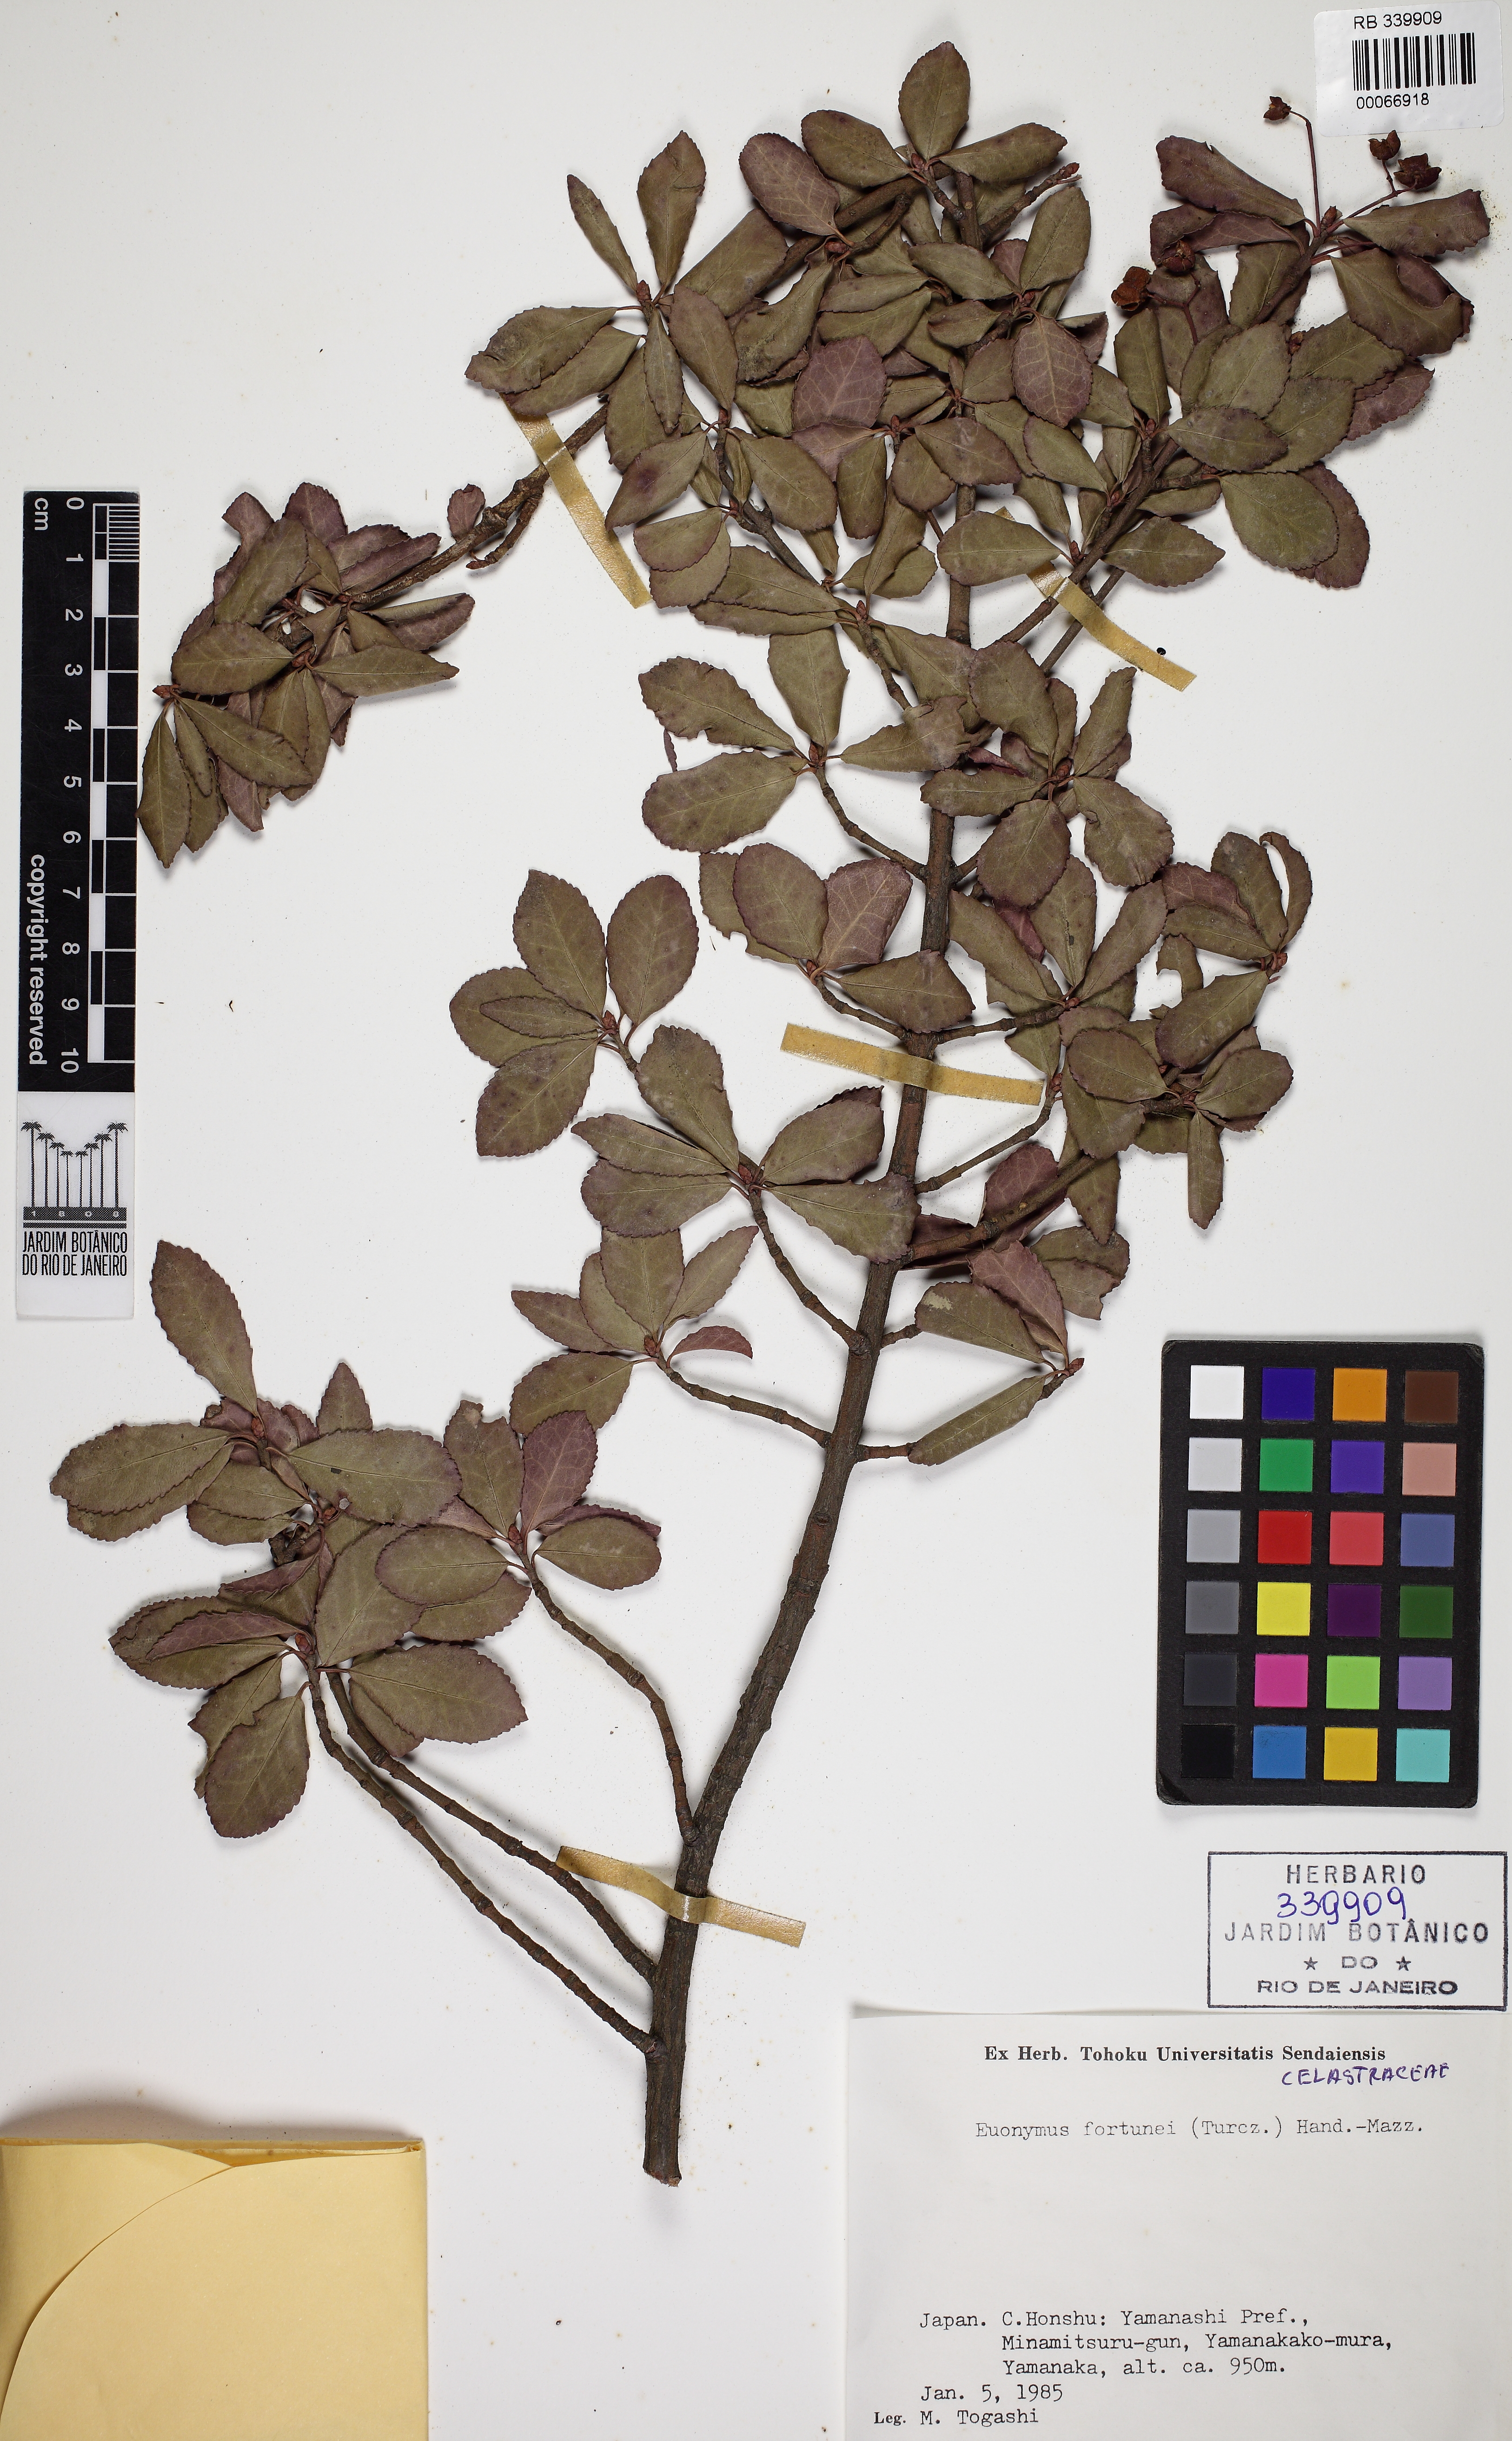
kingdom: Plantae
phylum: Tracheophyta
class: Magnoliopsida
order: Celastrales
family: Celastraceae
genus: Euonymus
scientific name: Euonymus fortunei
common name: Climbing euonymus
